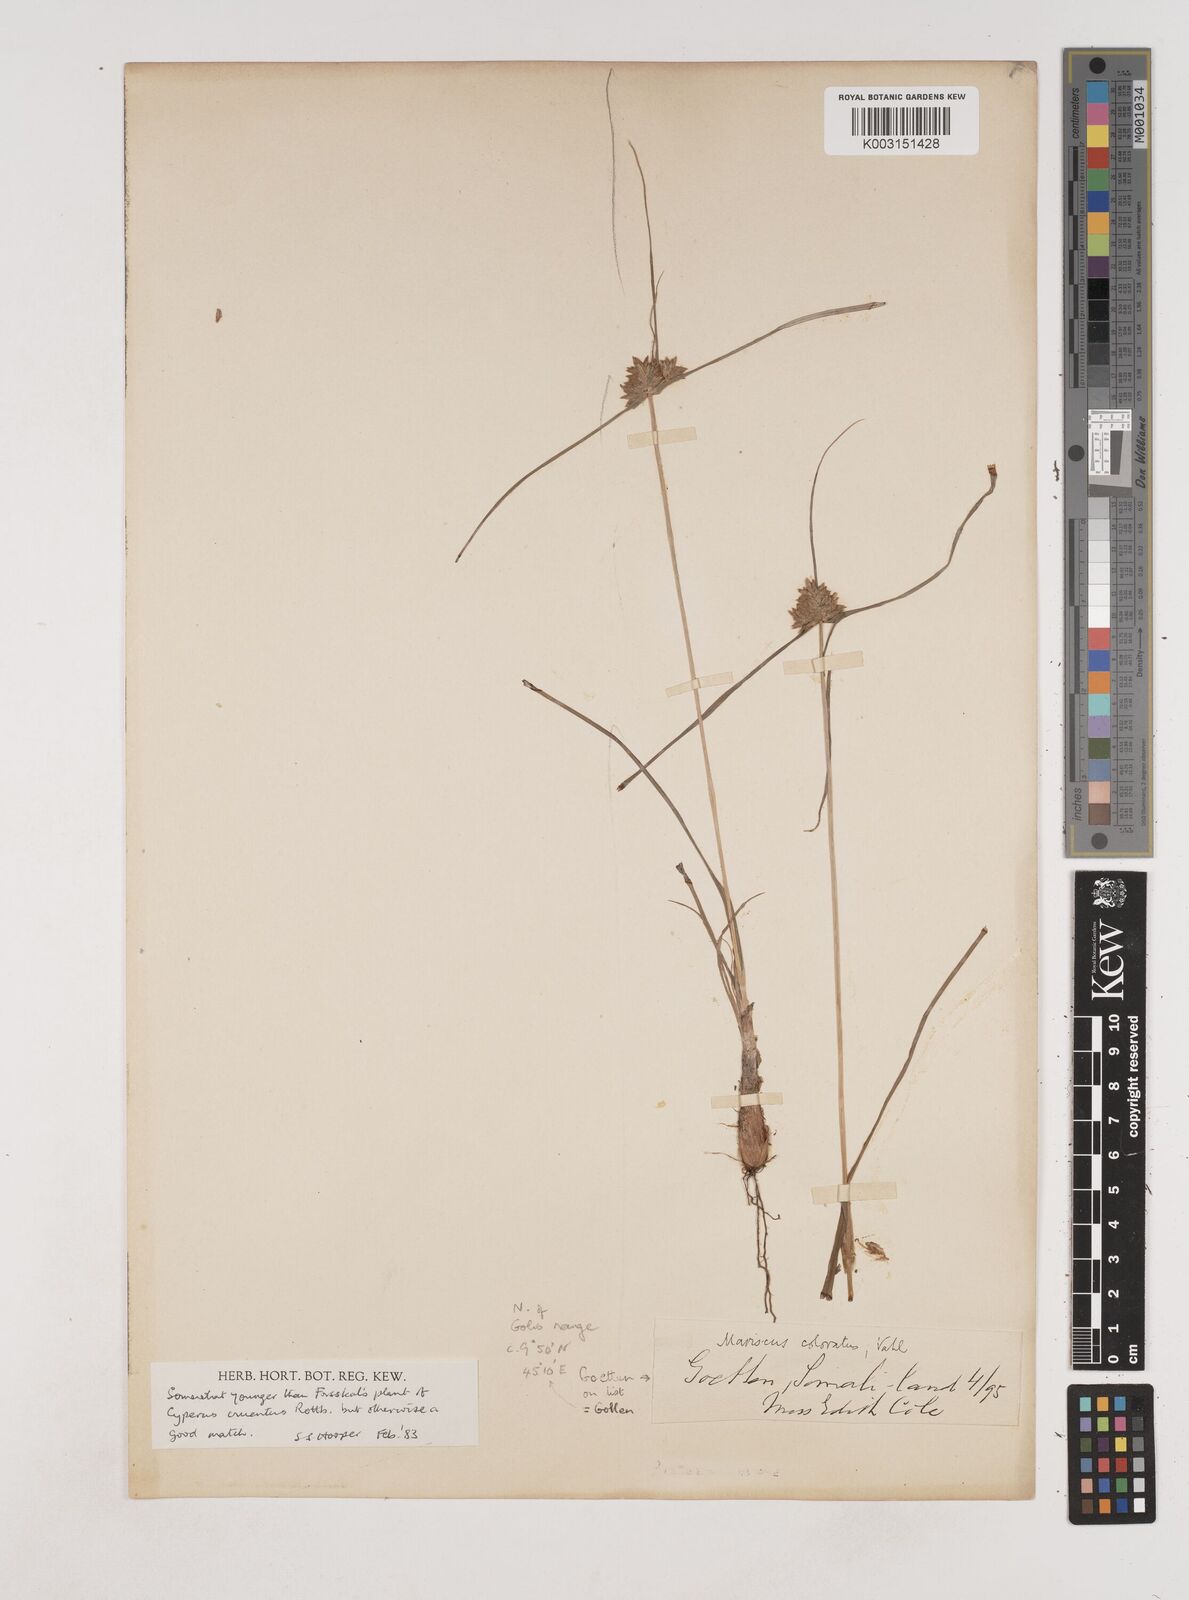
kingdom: Plantae
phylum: Tracheophyta
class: Liliopsida
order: Poales
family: Cyperaceae
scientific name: Cyperaceae
